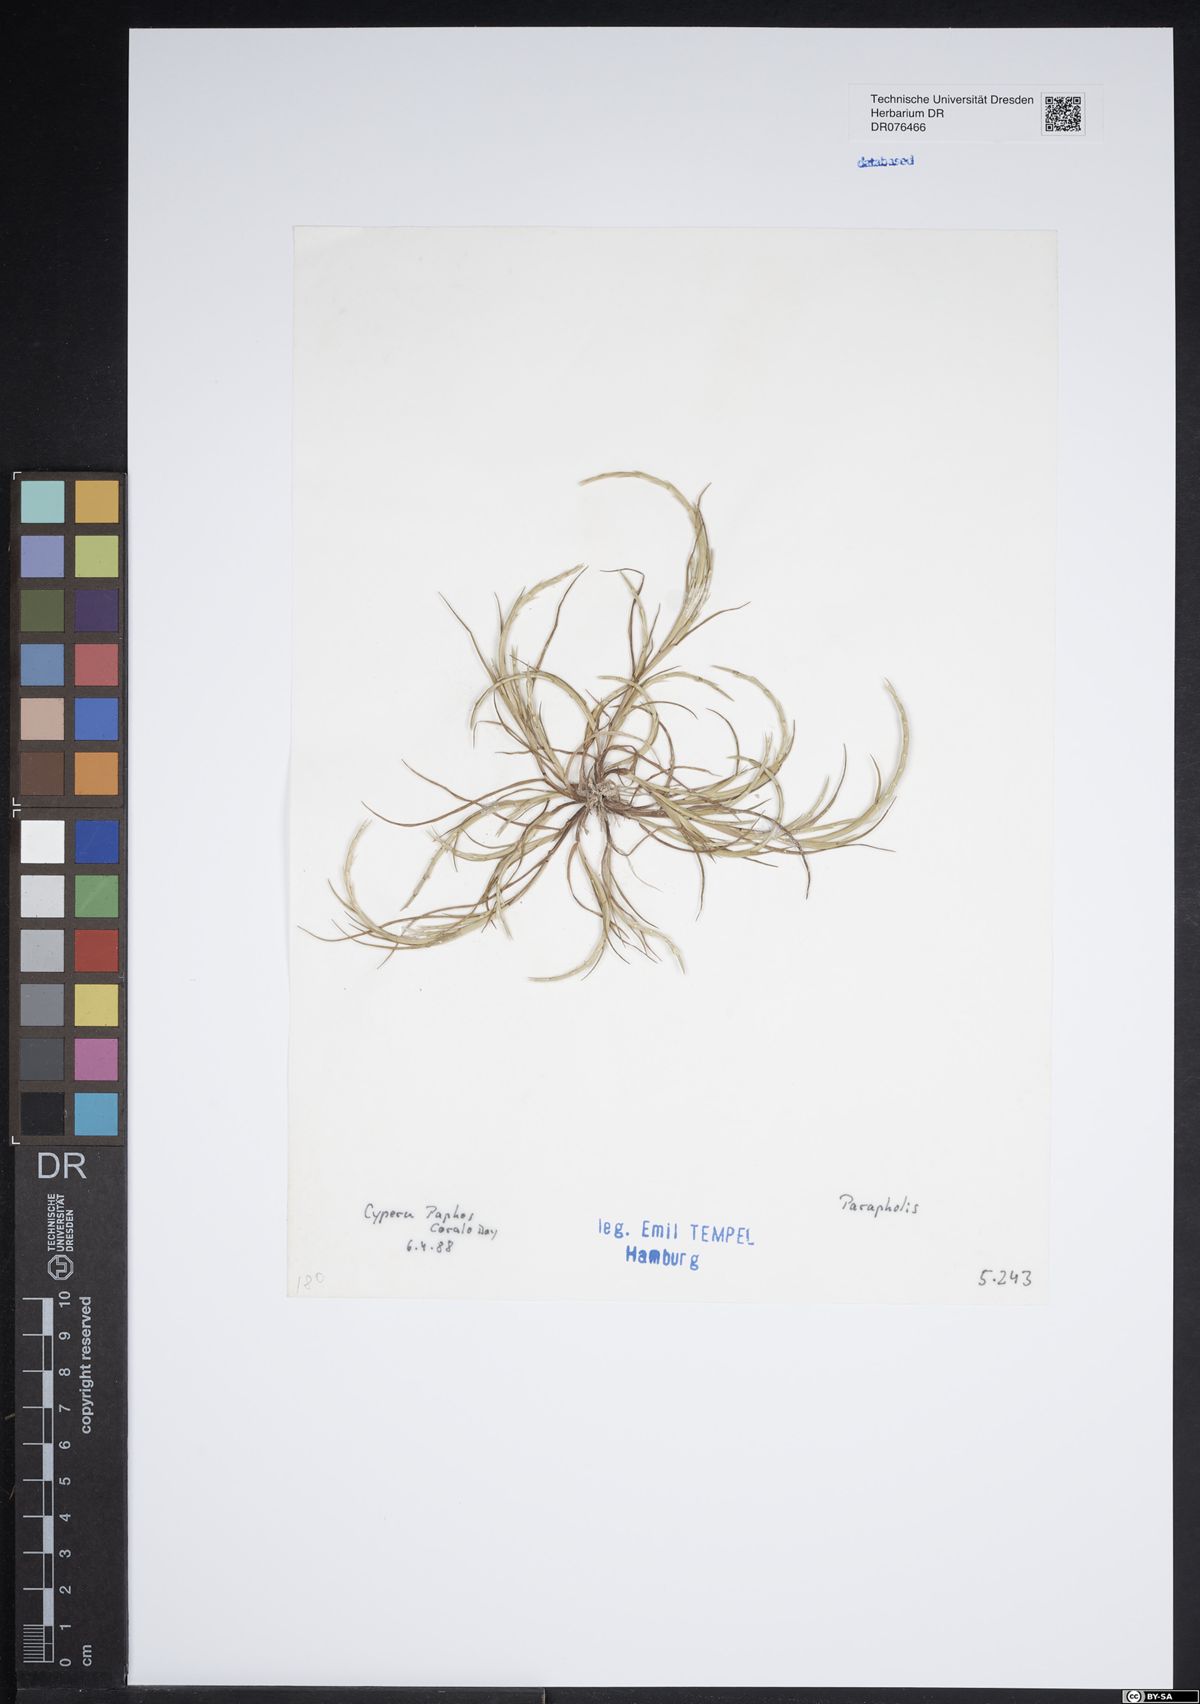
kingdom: Plantae
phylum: Tracheophyta
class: Liliopsida
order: Poales
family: Poaceae
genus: Parapholis
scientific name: Parapholis
